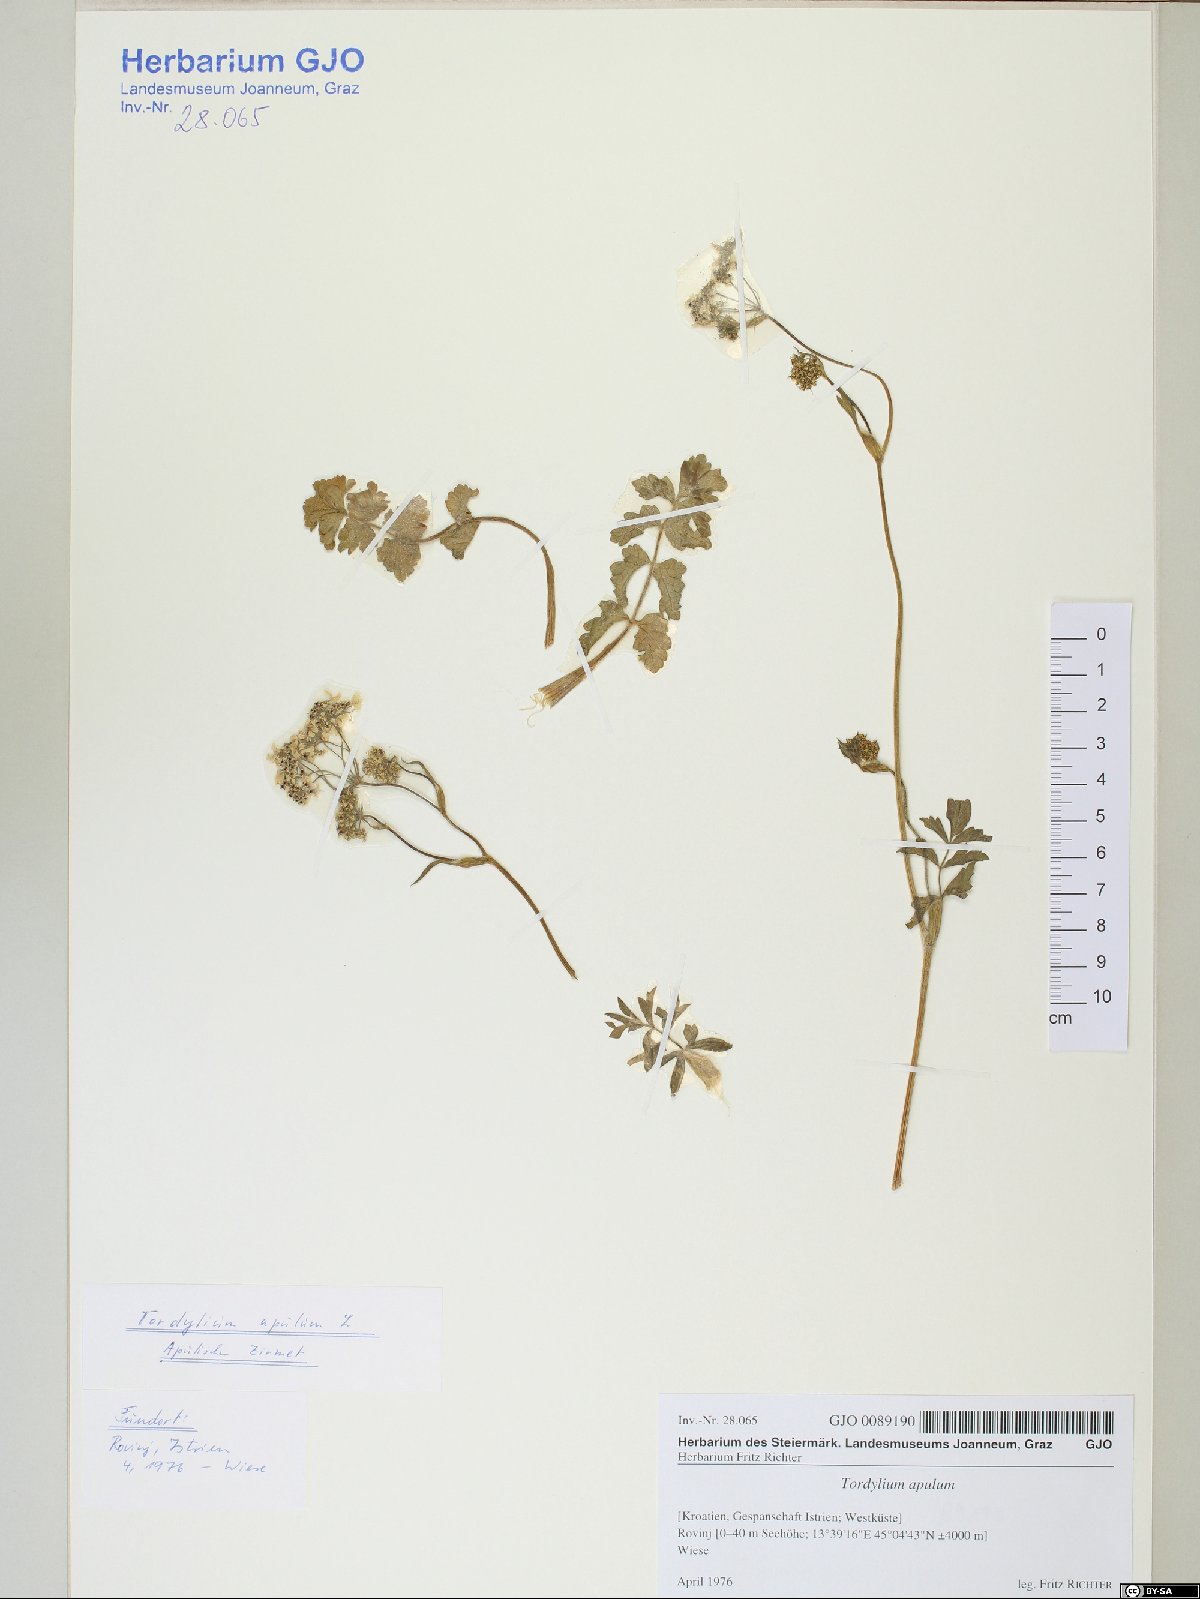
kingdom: Plantae
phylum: Tracheophyta
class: Magnoliopsida
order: Apiales
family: Apiaceae
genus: Tordylium
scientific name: Tordylium apulum
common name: Mediterranean hartwort
